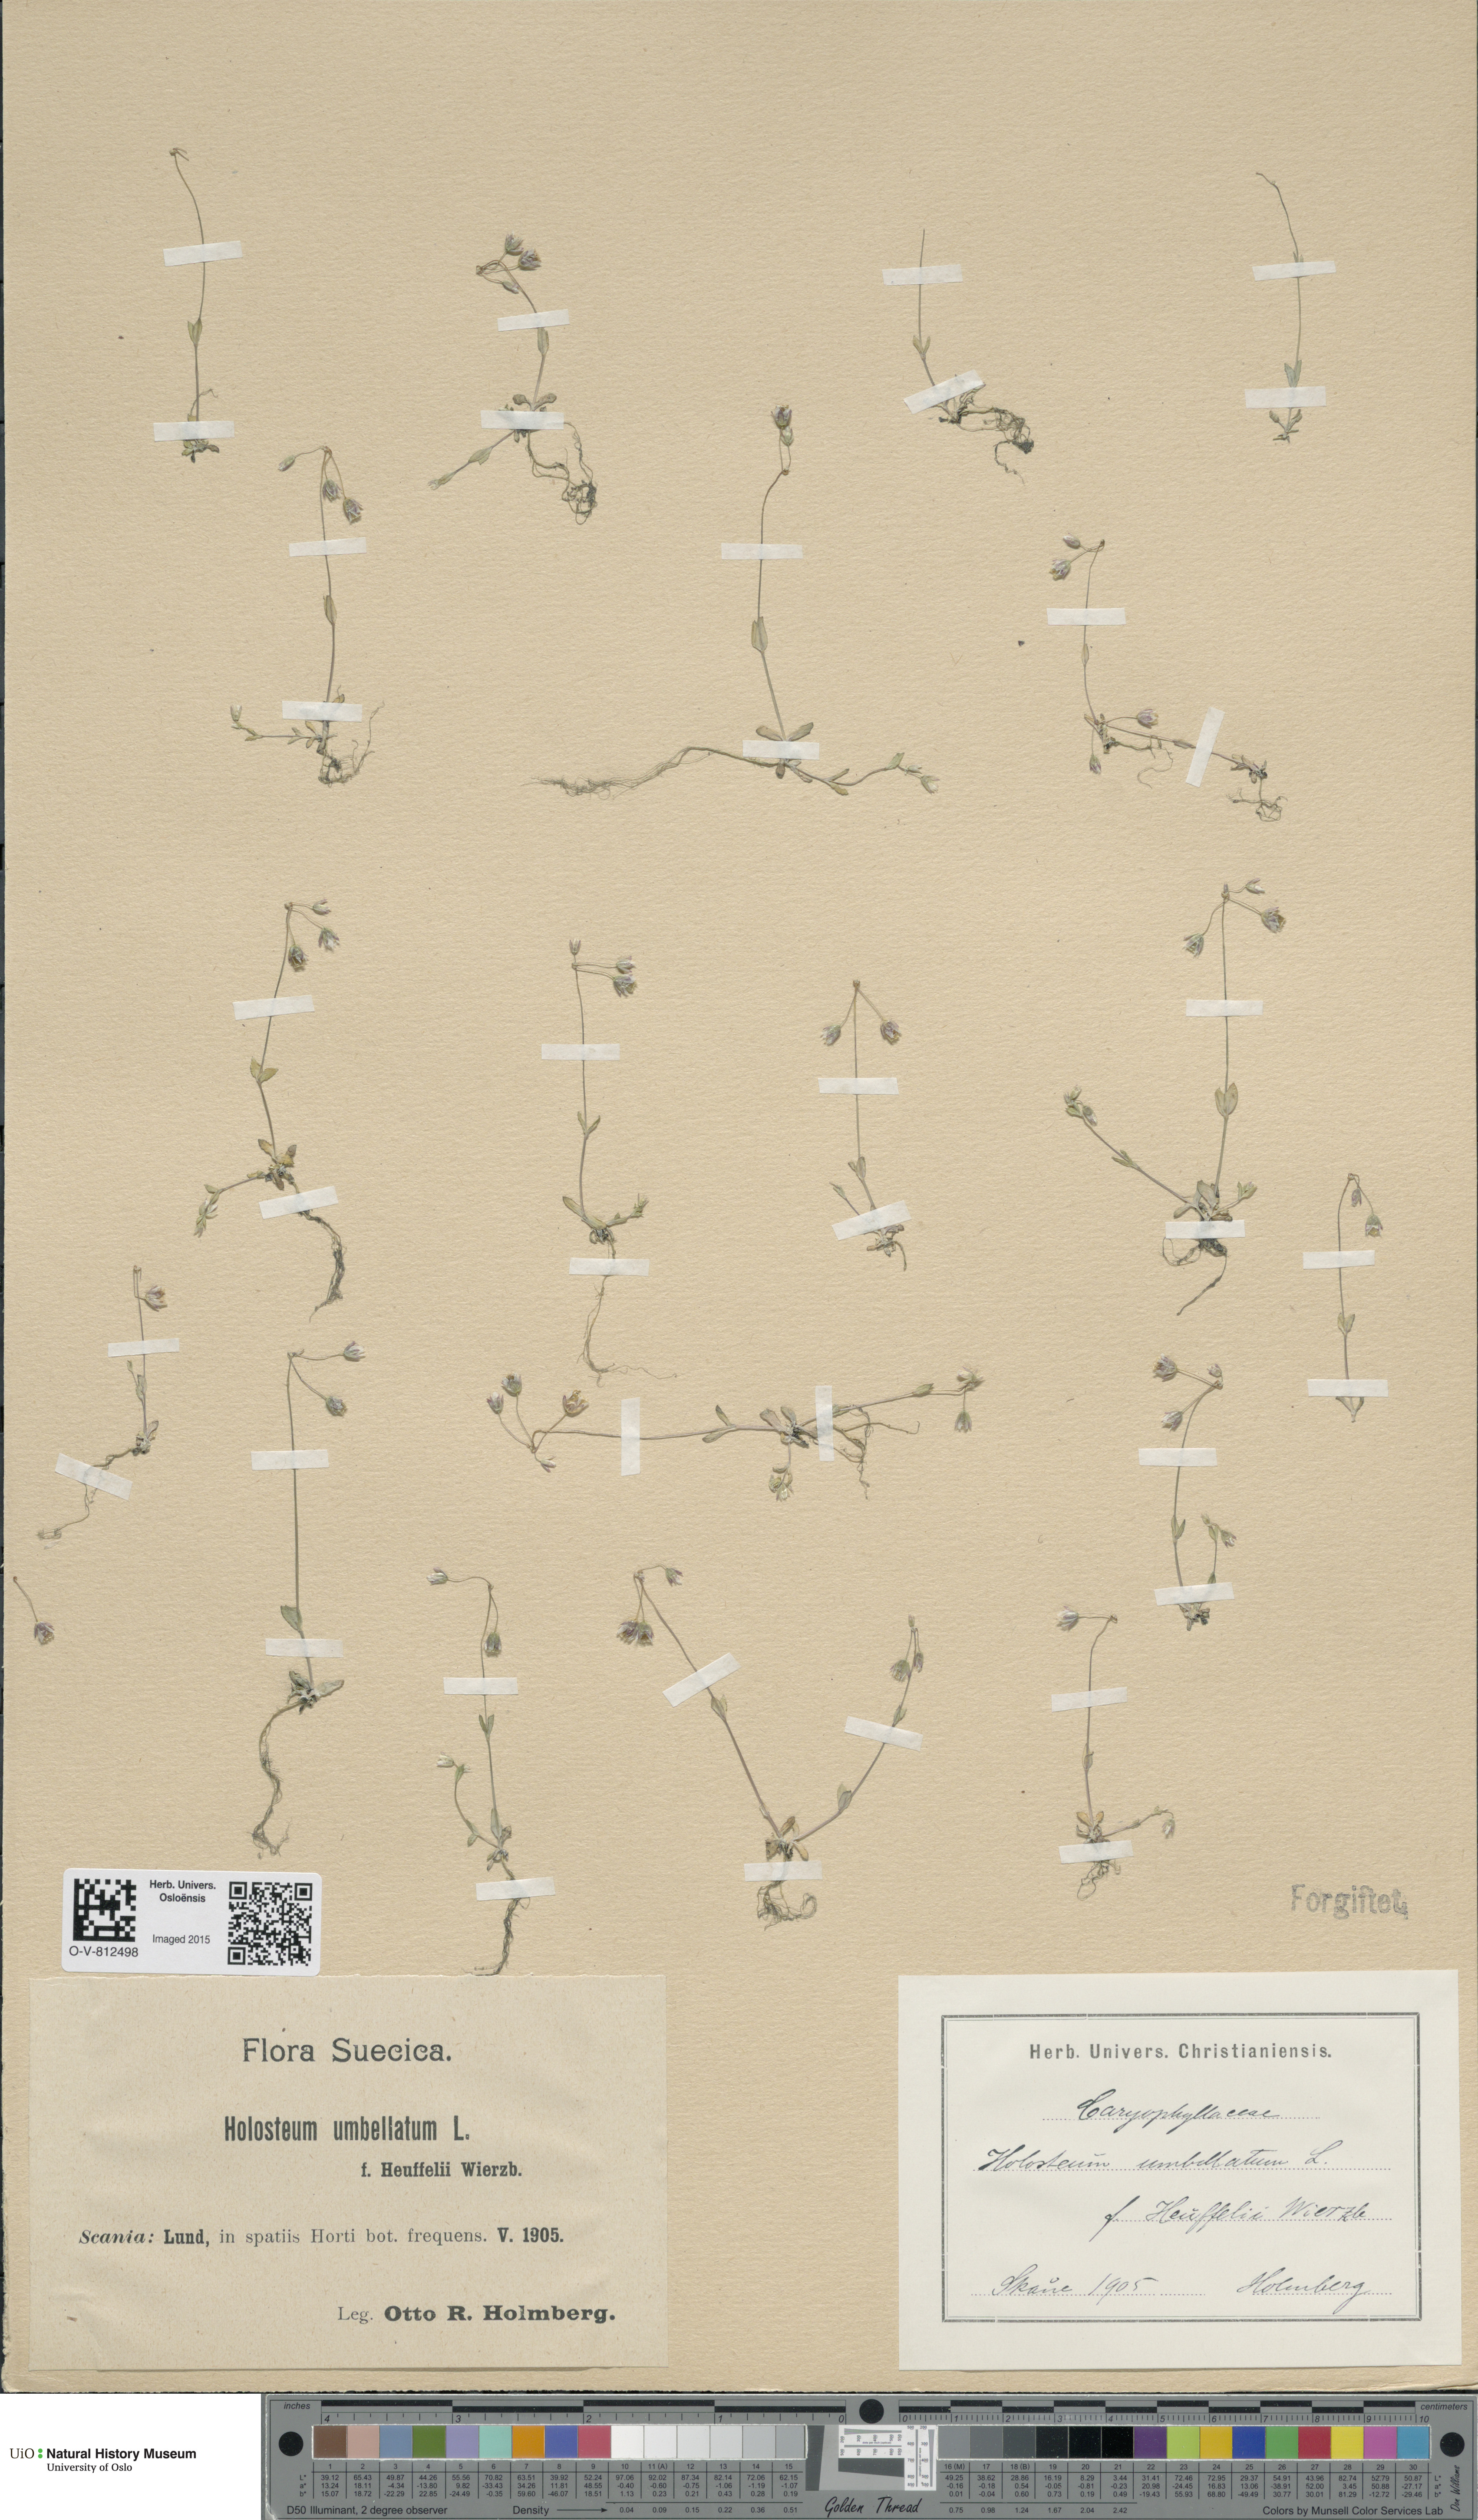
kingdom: Plantae
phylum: Tracheophyta
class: Magnoliopsida
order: Caryophyllales
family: Caryophyllaceae
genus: Holosteum
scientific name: Holosteum umbellatum
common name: Jagged chickweed
